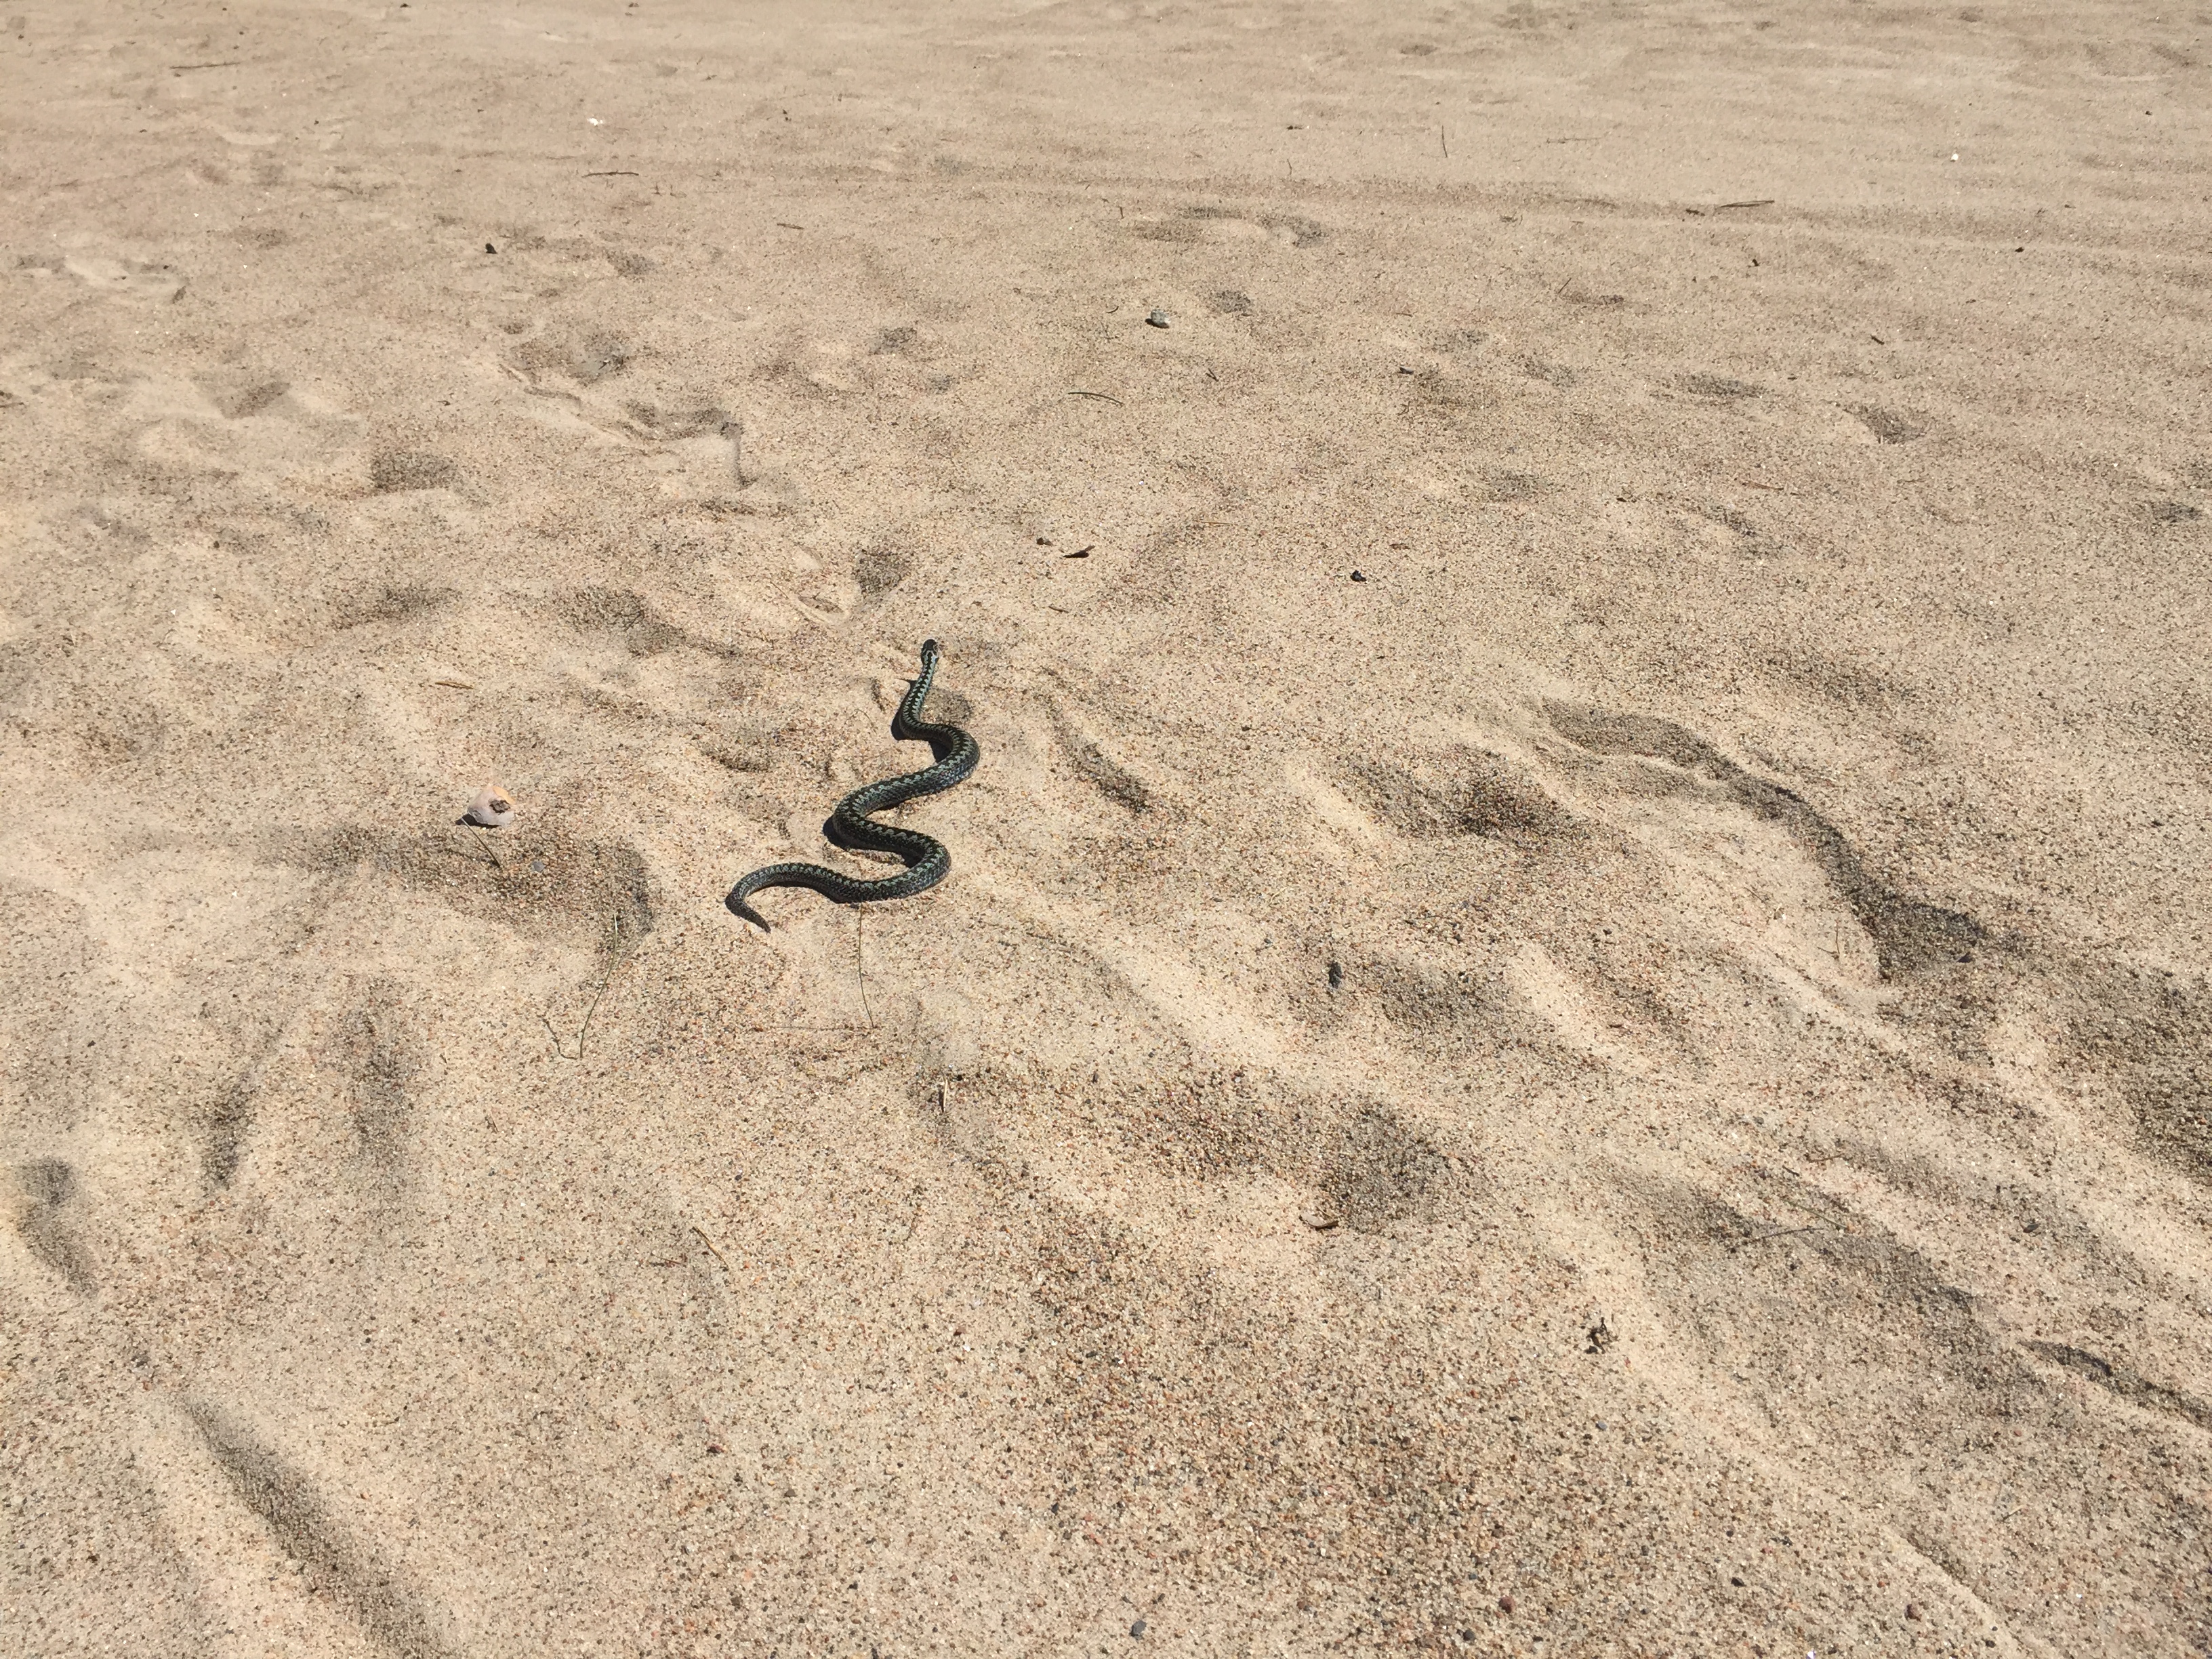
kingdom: Animalia
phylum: Chordata
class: Squamata
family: Viperidae
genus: Vipera
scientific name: Vipera berus
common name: Adder
